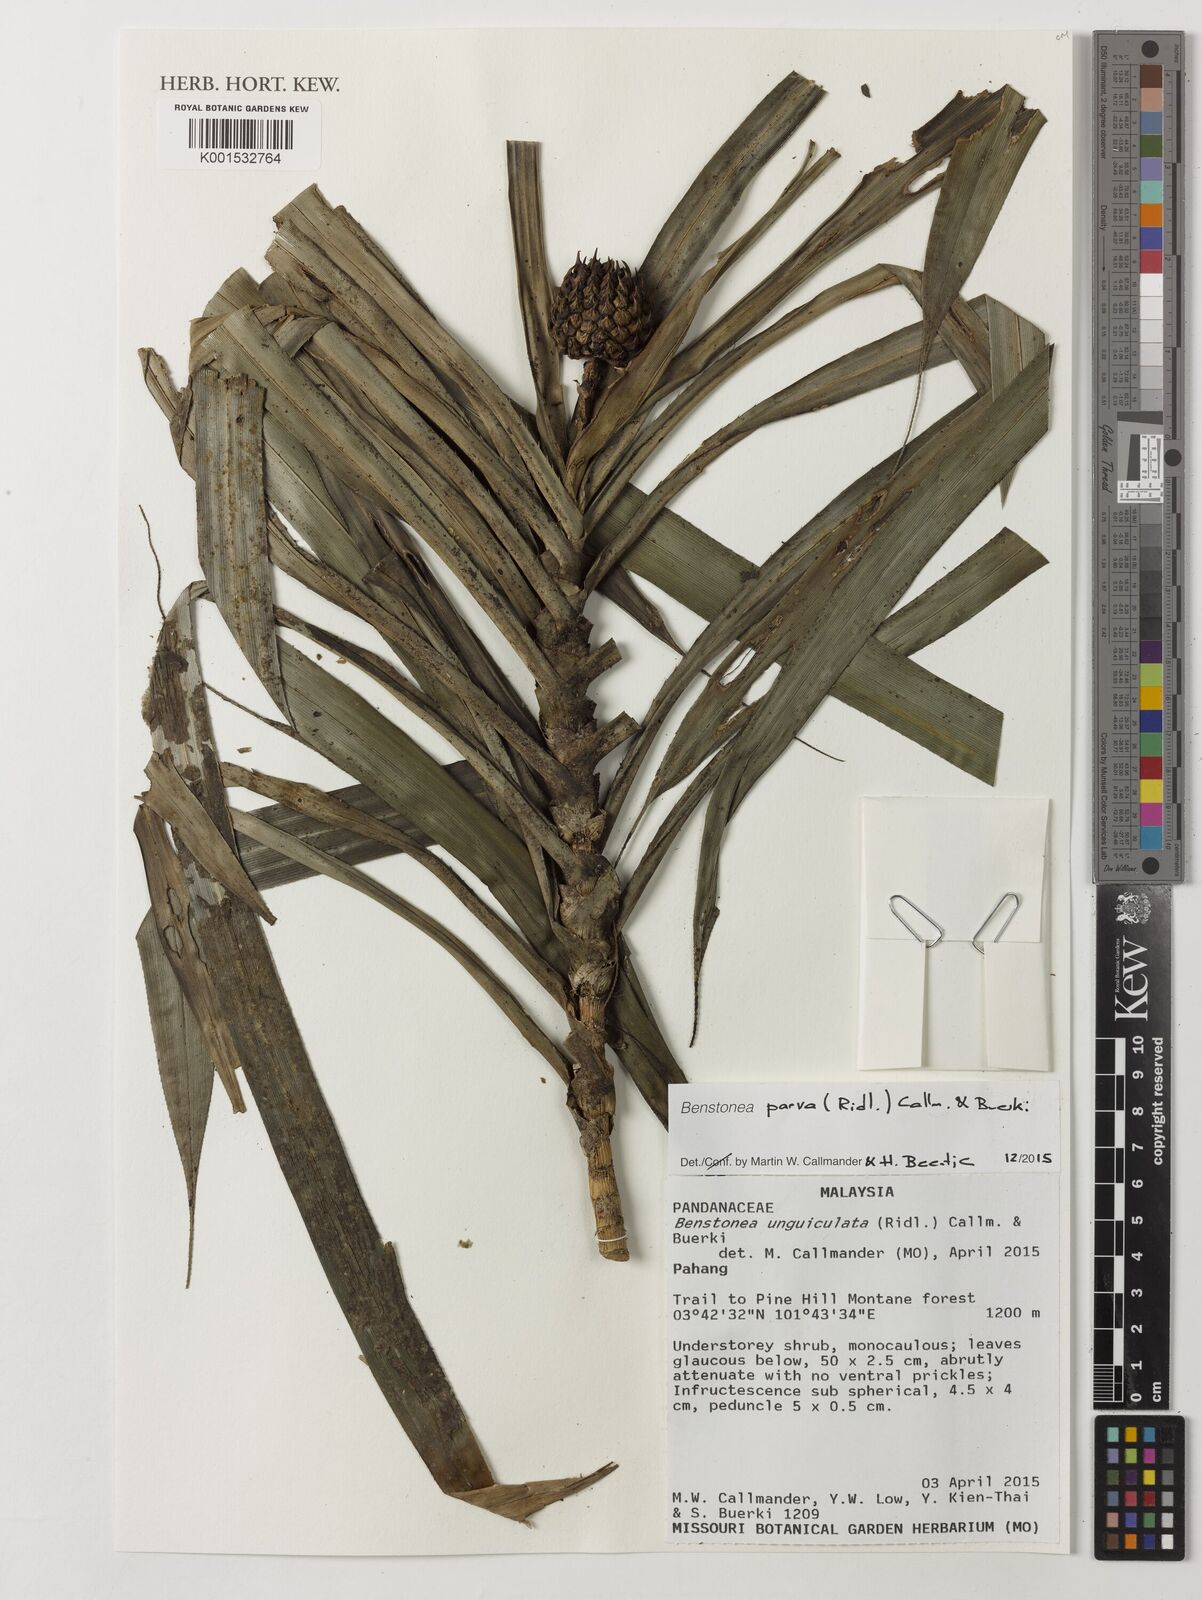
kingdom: Plantae
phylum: Tracheophyta
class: Liliopsida
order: Pandanales
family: Pandanaceae
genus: Benstonea
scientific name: Benstonea parva
